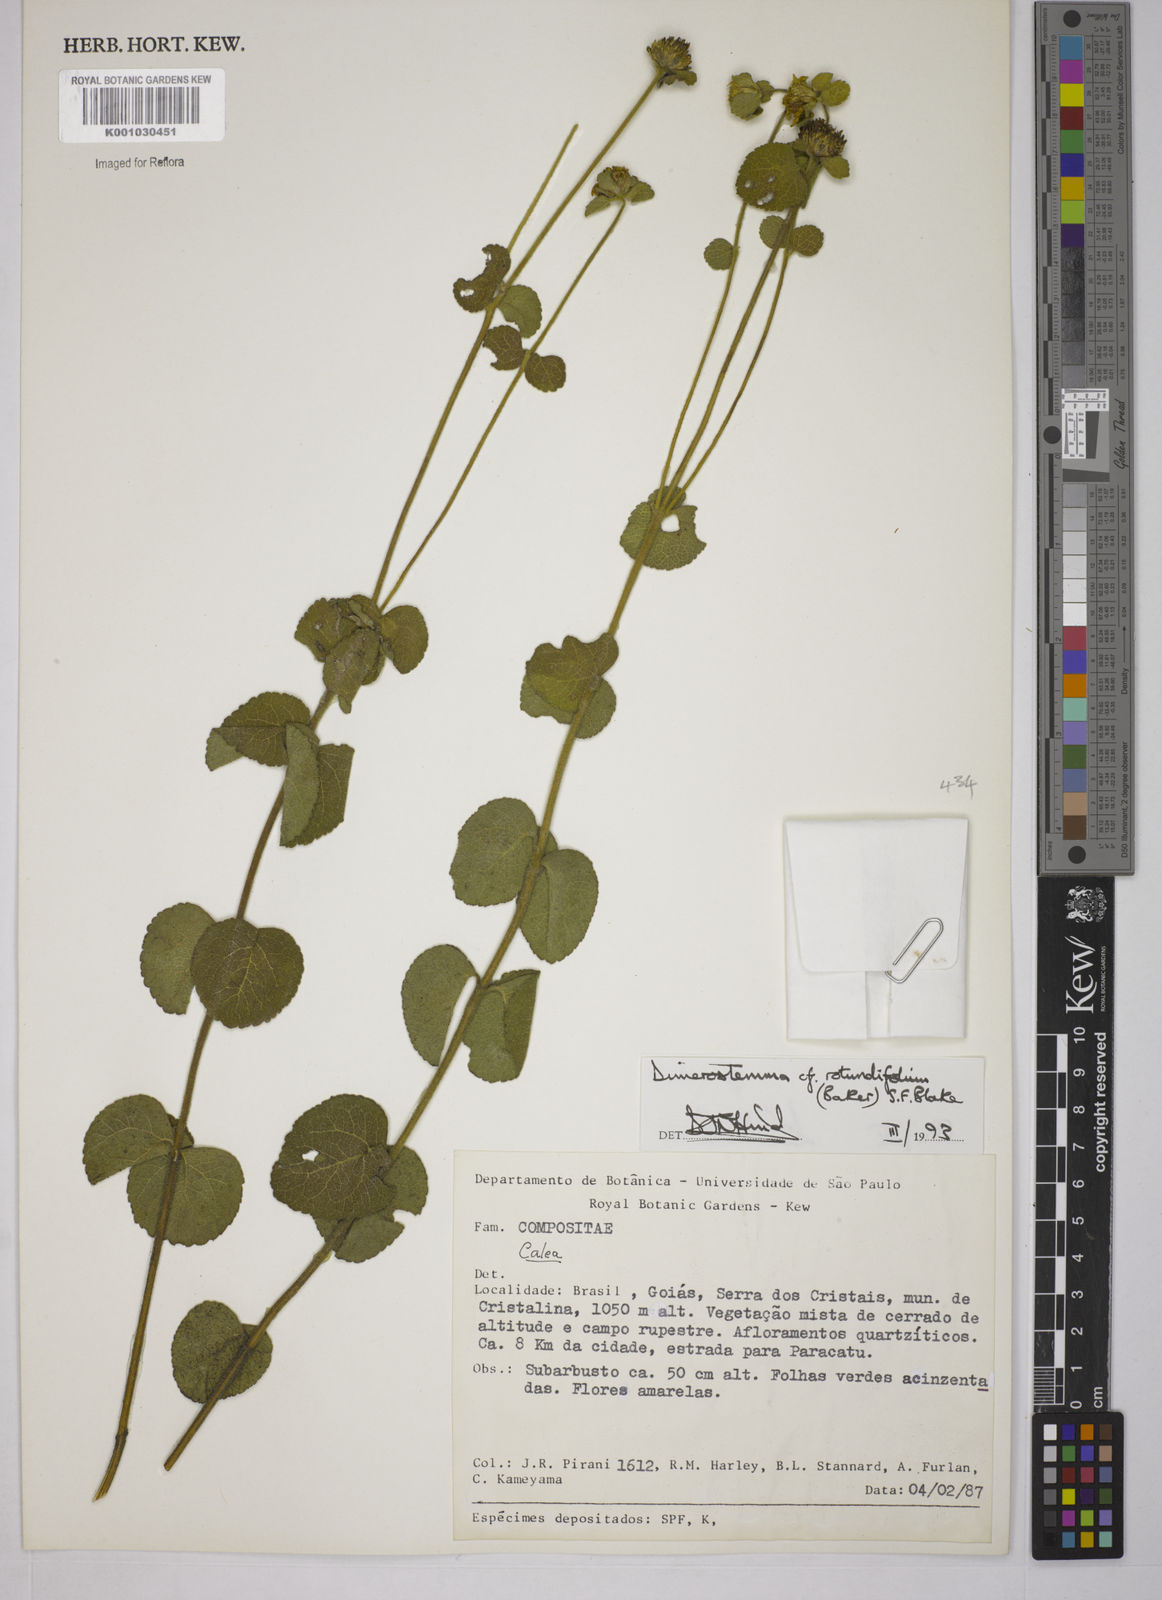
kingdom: Plantae
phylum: Tracheophyta
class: Magnoliopsida
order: Asterales
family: Asteraceae
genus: Dimerostemma
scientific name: Dimerostemma brasilianum
